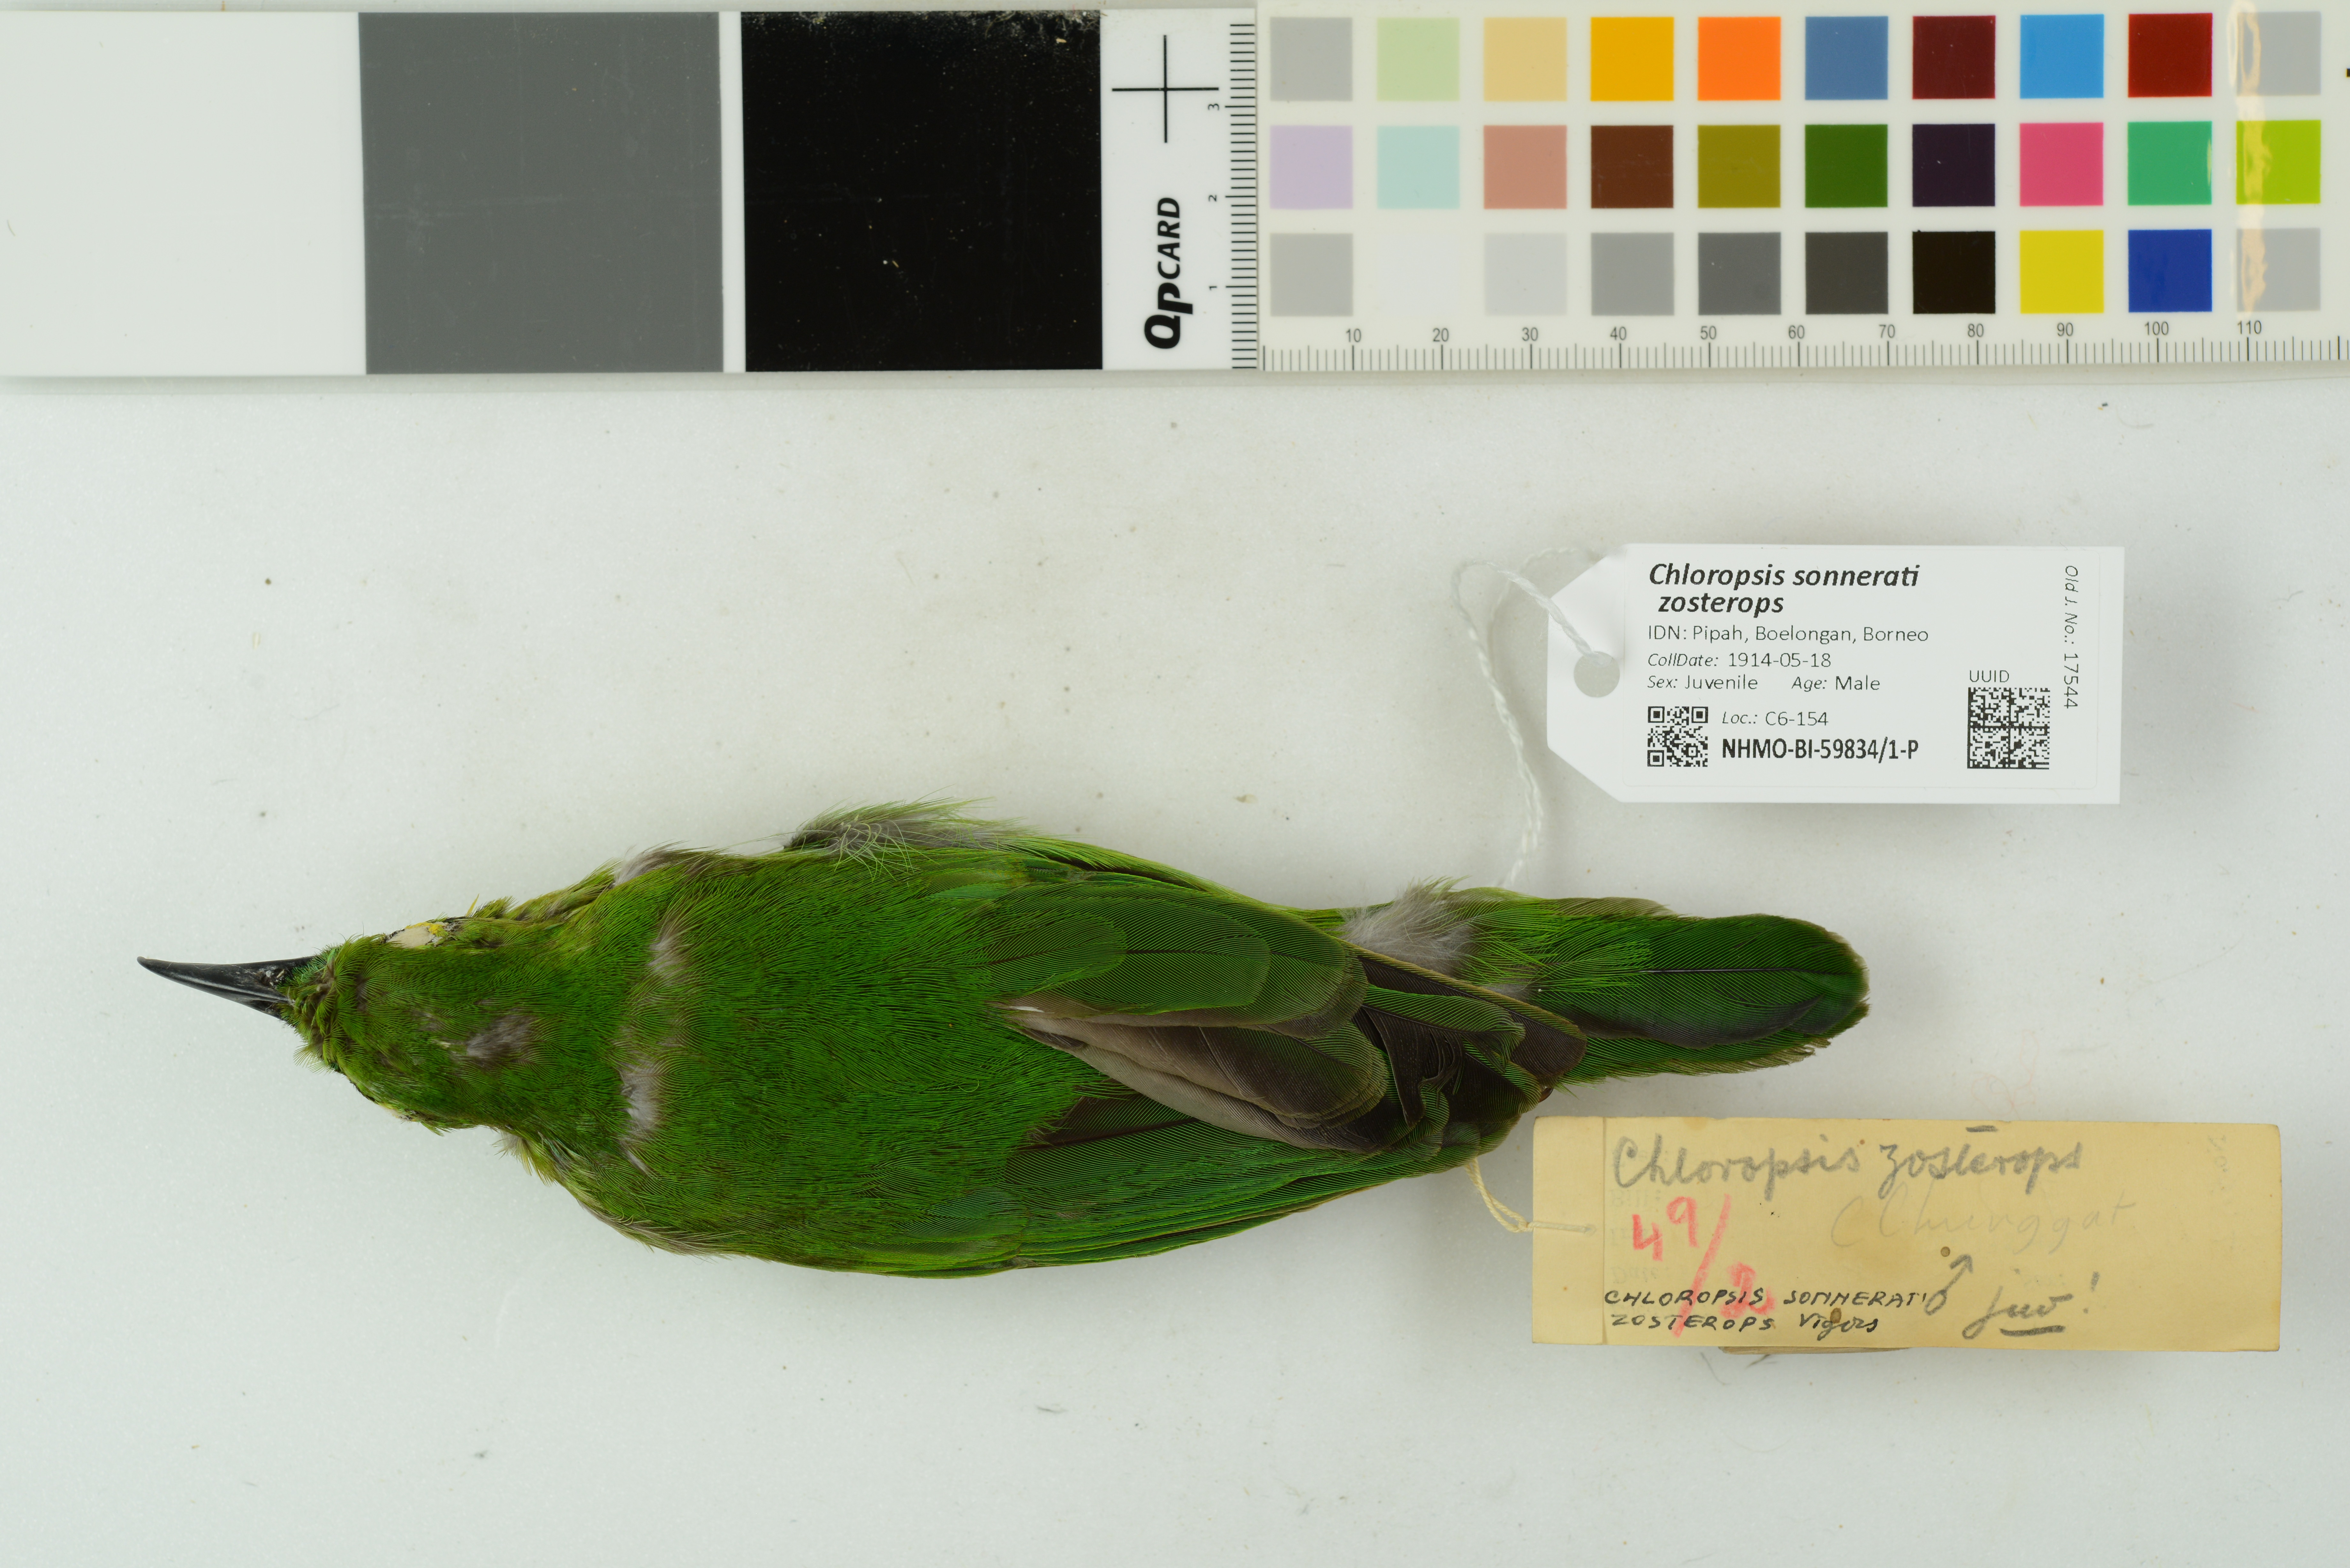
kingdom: Animalia
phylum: Chordata
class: Aves
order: Passeriformes
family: Chloropseidae
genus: Chloropsis
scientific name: Chloropsis sonnerati
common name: Greater green leafbird
